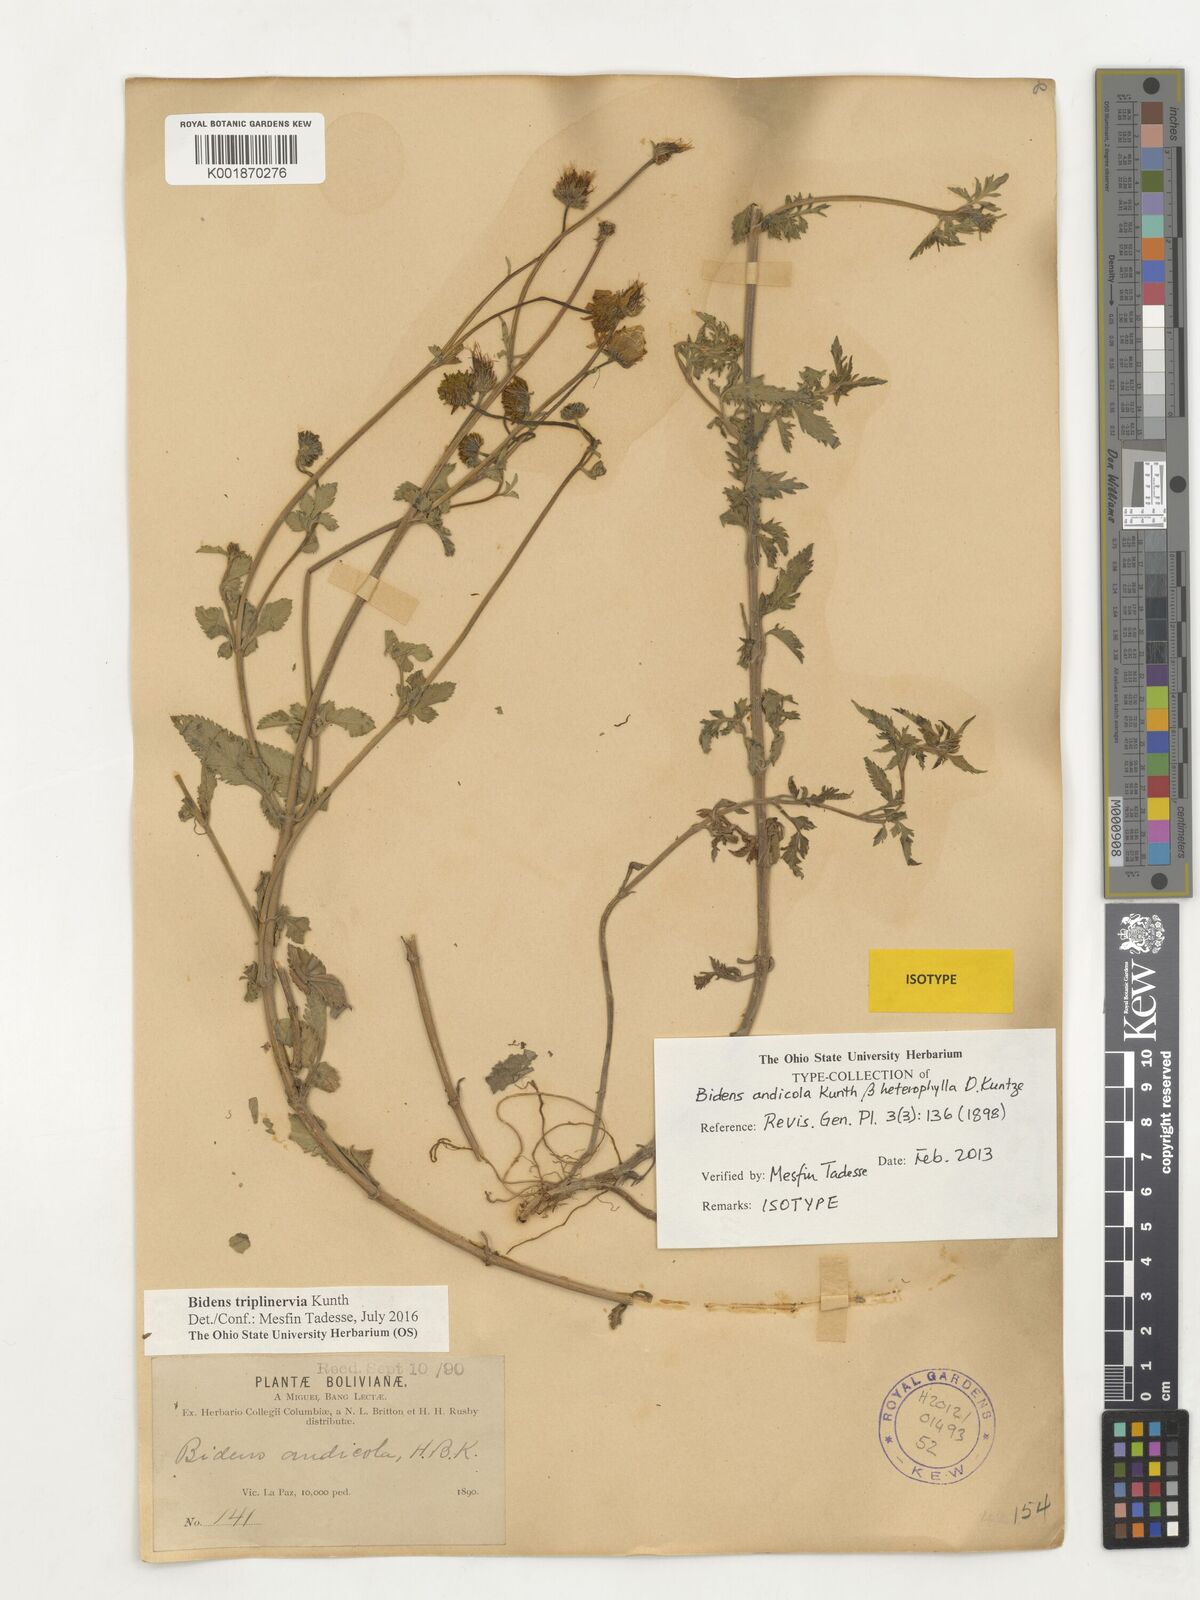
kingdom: Plantae
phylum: Tracheophyta
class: Magnoliopsida
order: Asterales
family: Asteraceae
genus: Bidens
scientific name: Bidens triplinervia
